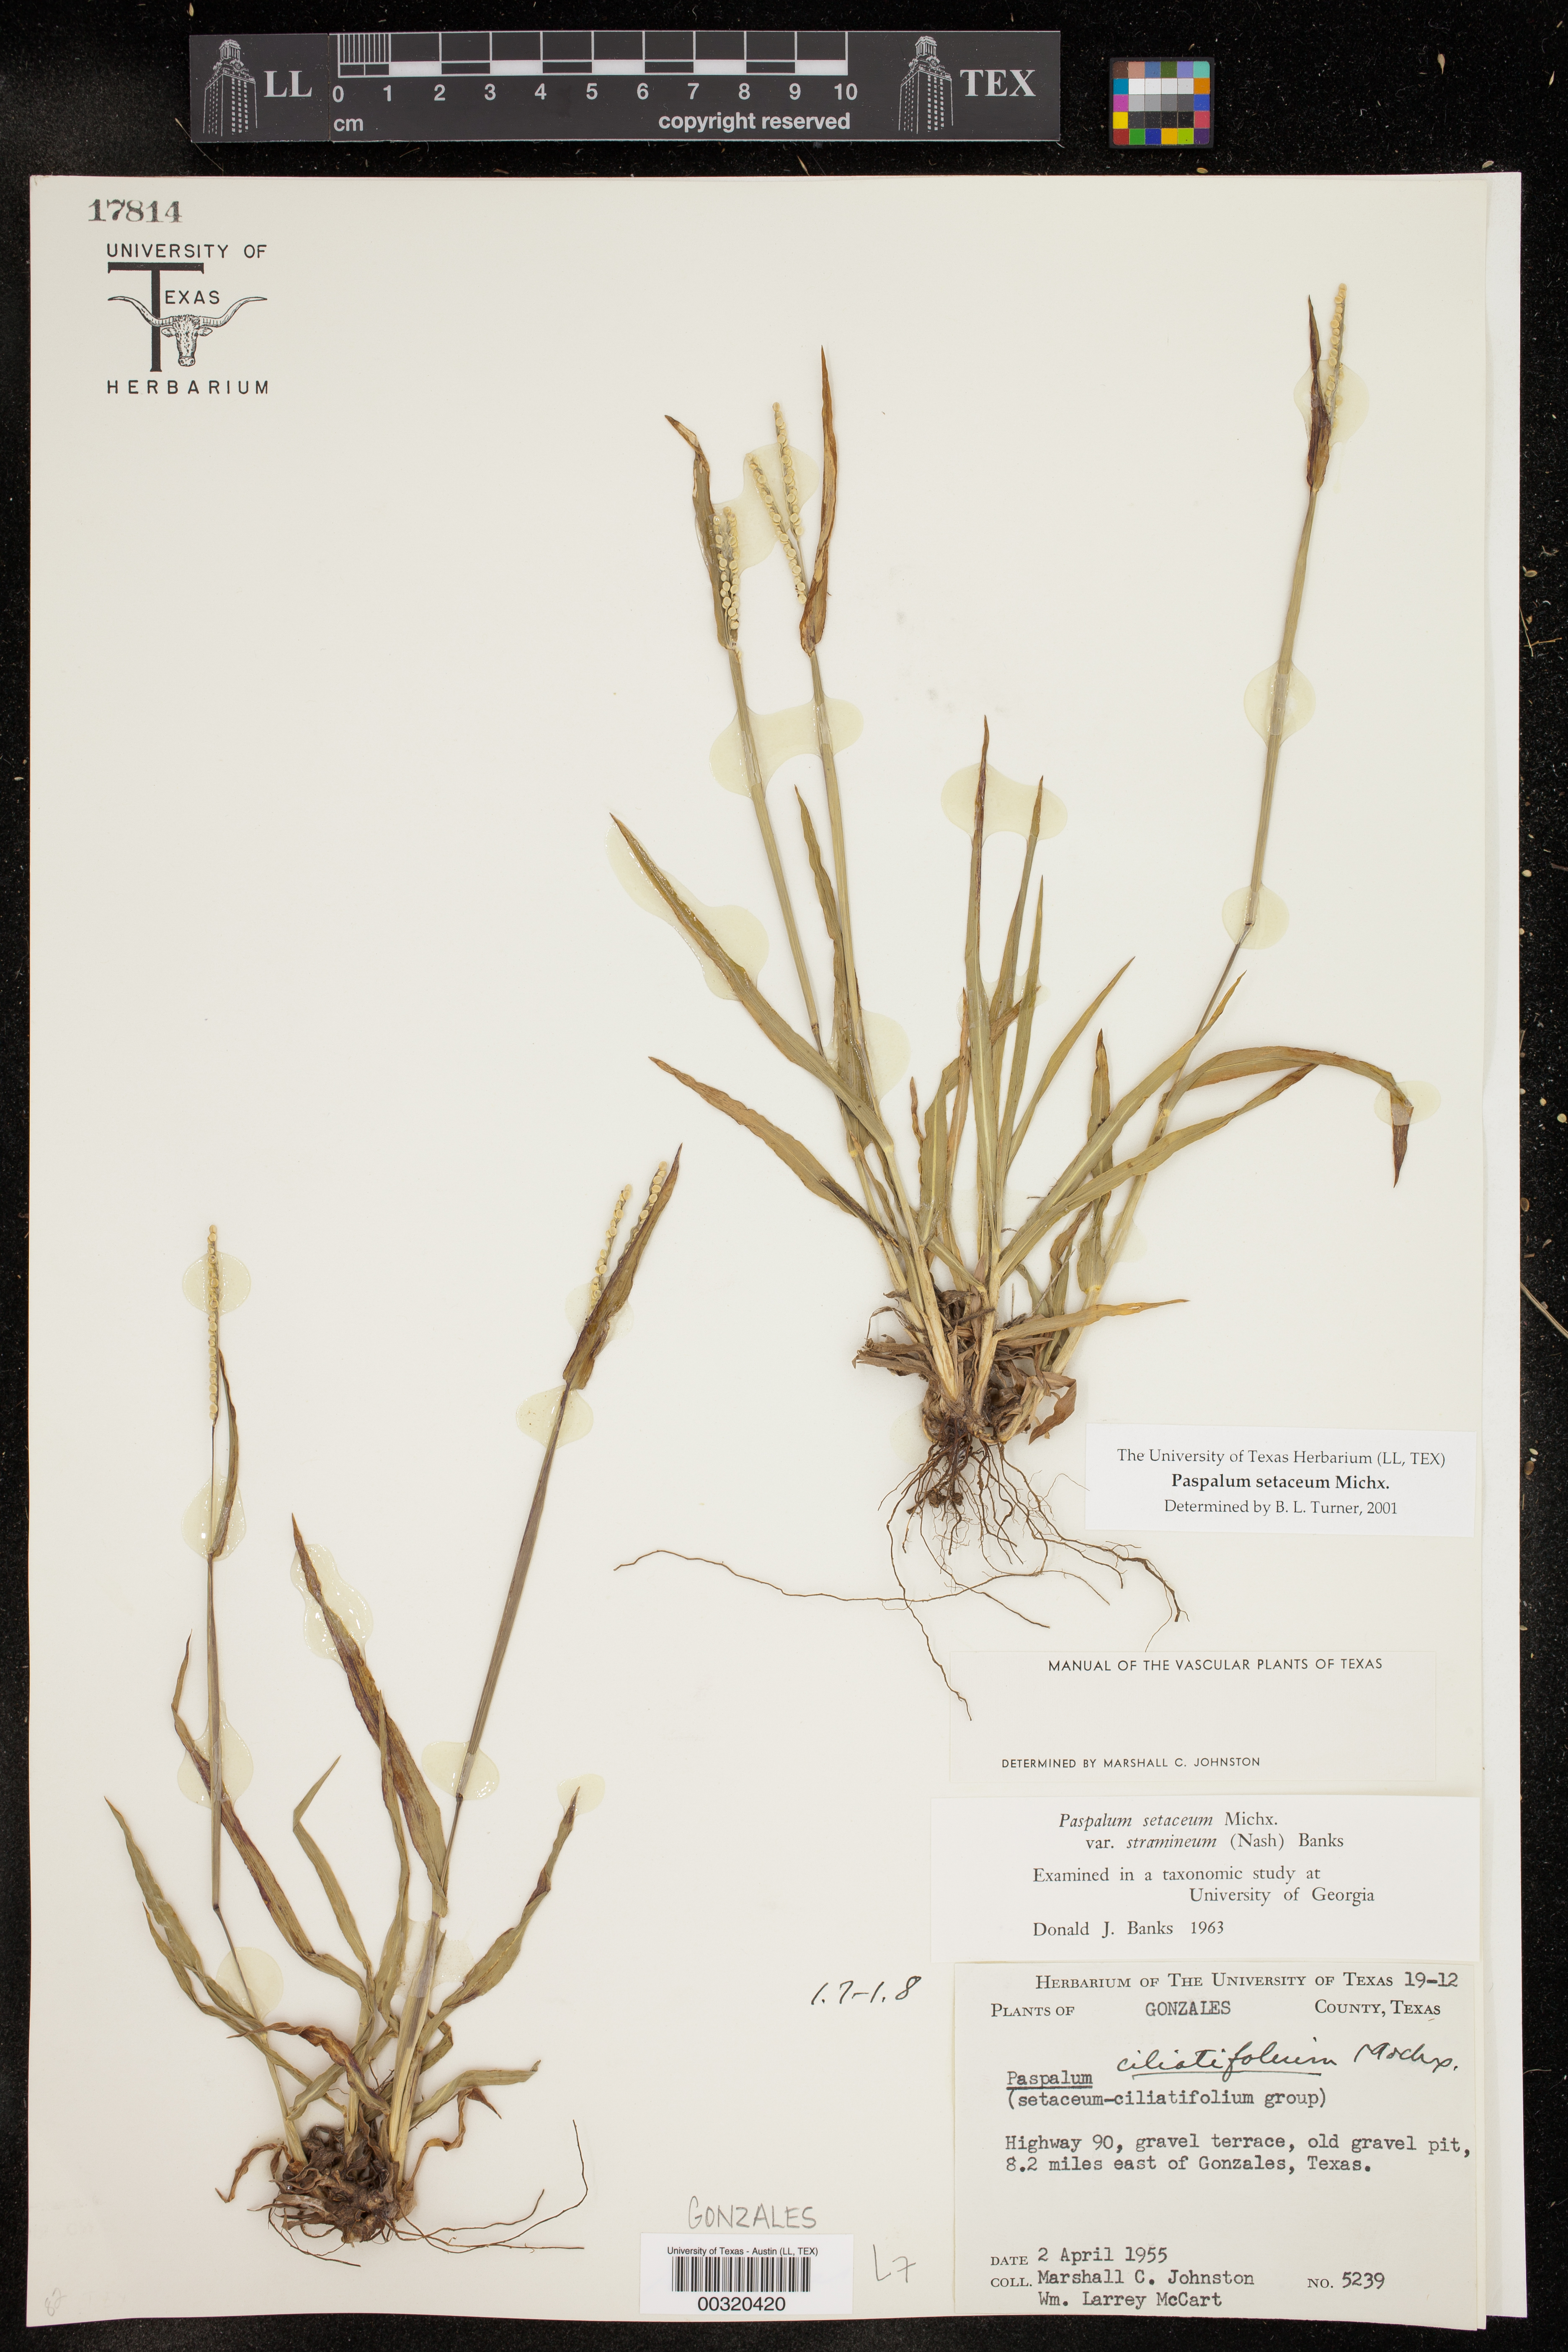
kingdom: Plantae
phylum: Tracheophyta
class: Liliopsida
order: Poales
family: Poaceae
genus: Paspalum
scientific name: Paspalum setaceum
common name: Slender paspalum
